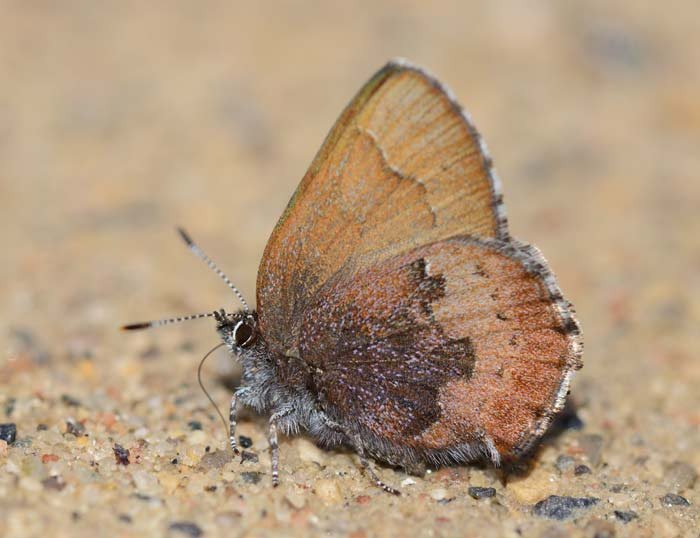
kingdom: Animalia
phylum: Arthropoda
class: Insecta
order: Lepidoptera
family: Lycaenidae
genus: Incisalia
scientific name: Incisalia irioides
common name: Brown Elfin
